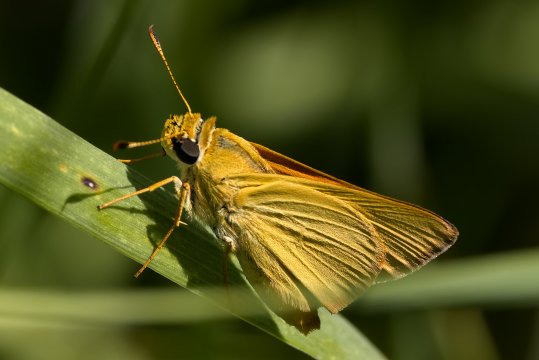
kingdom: Animalia
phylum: Arthropoda
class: Insecta
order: Lepidoptera
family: Hesperiidae
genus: Atrytone
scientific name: Atrytone delaware
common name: Delaware Skipper
